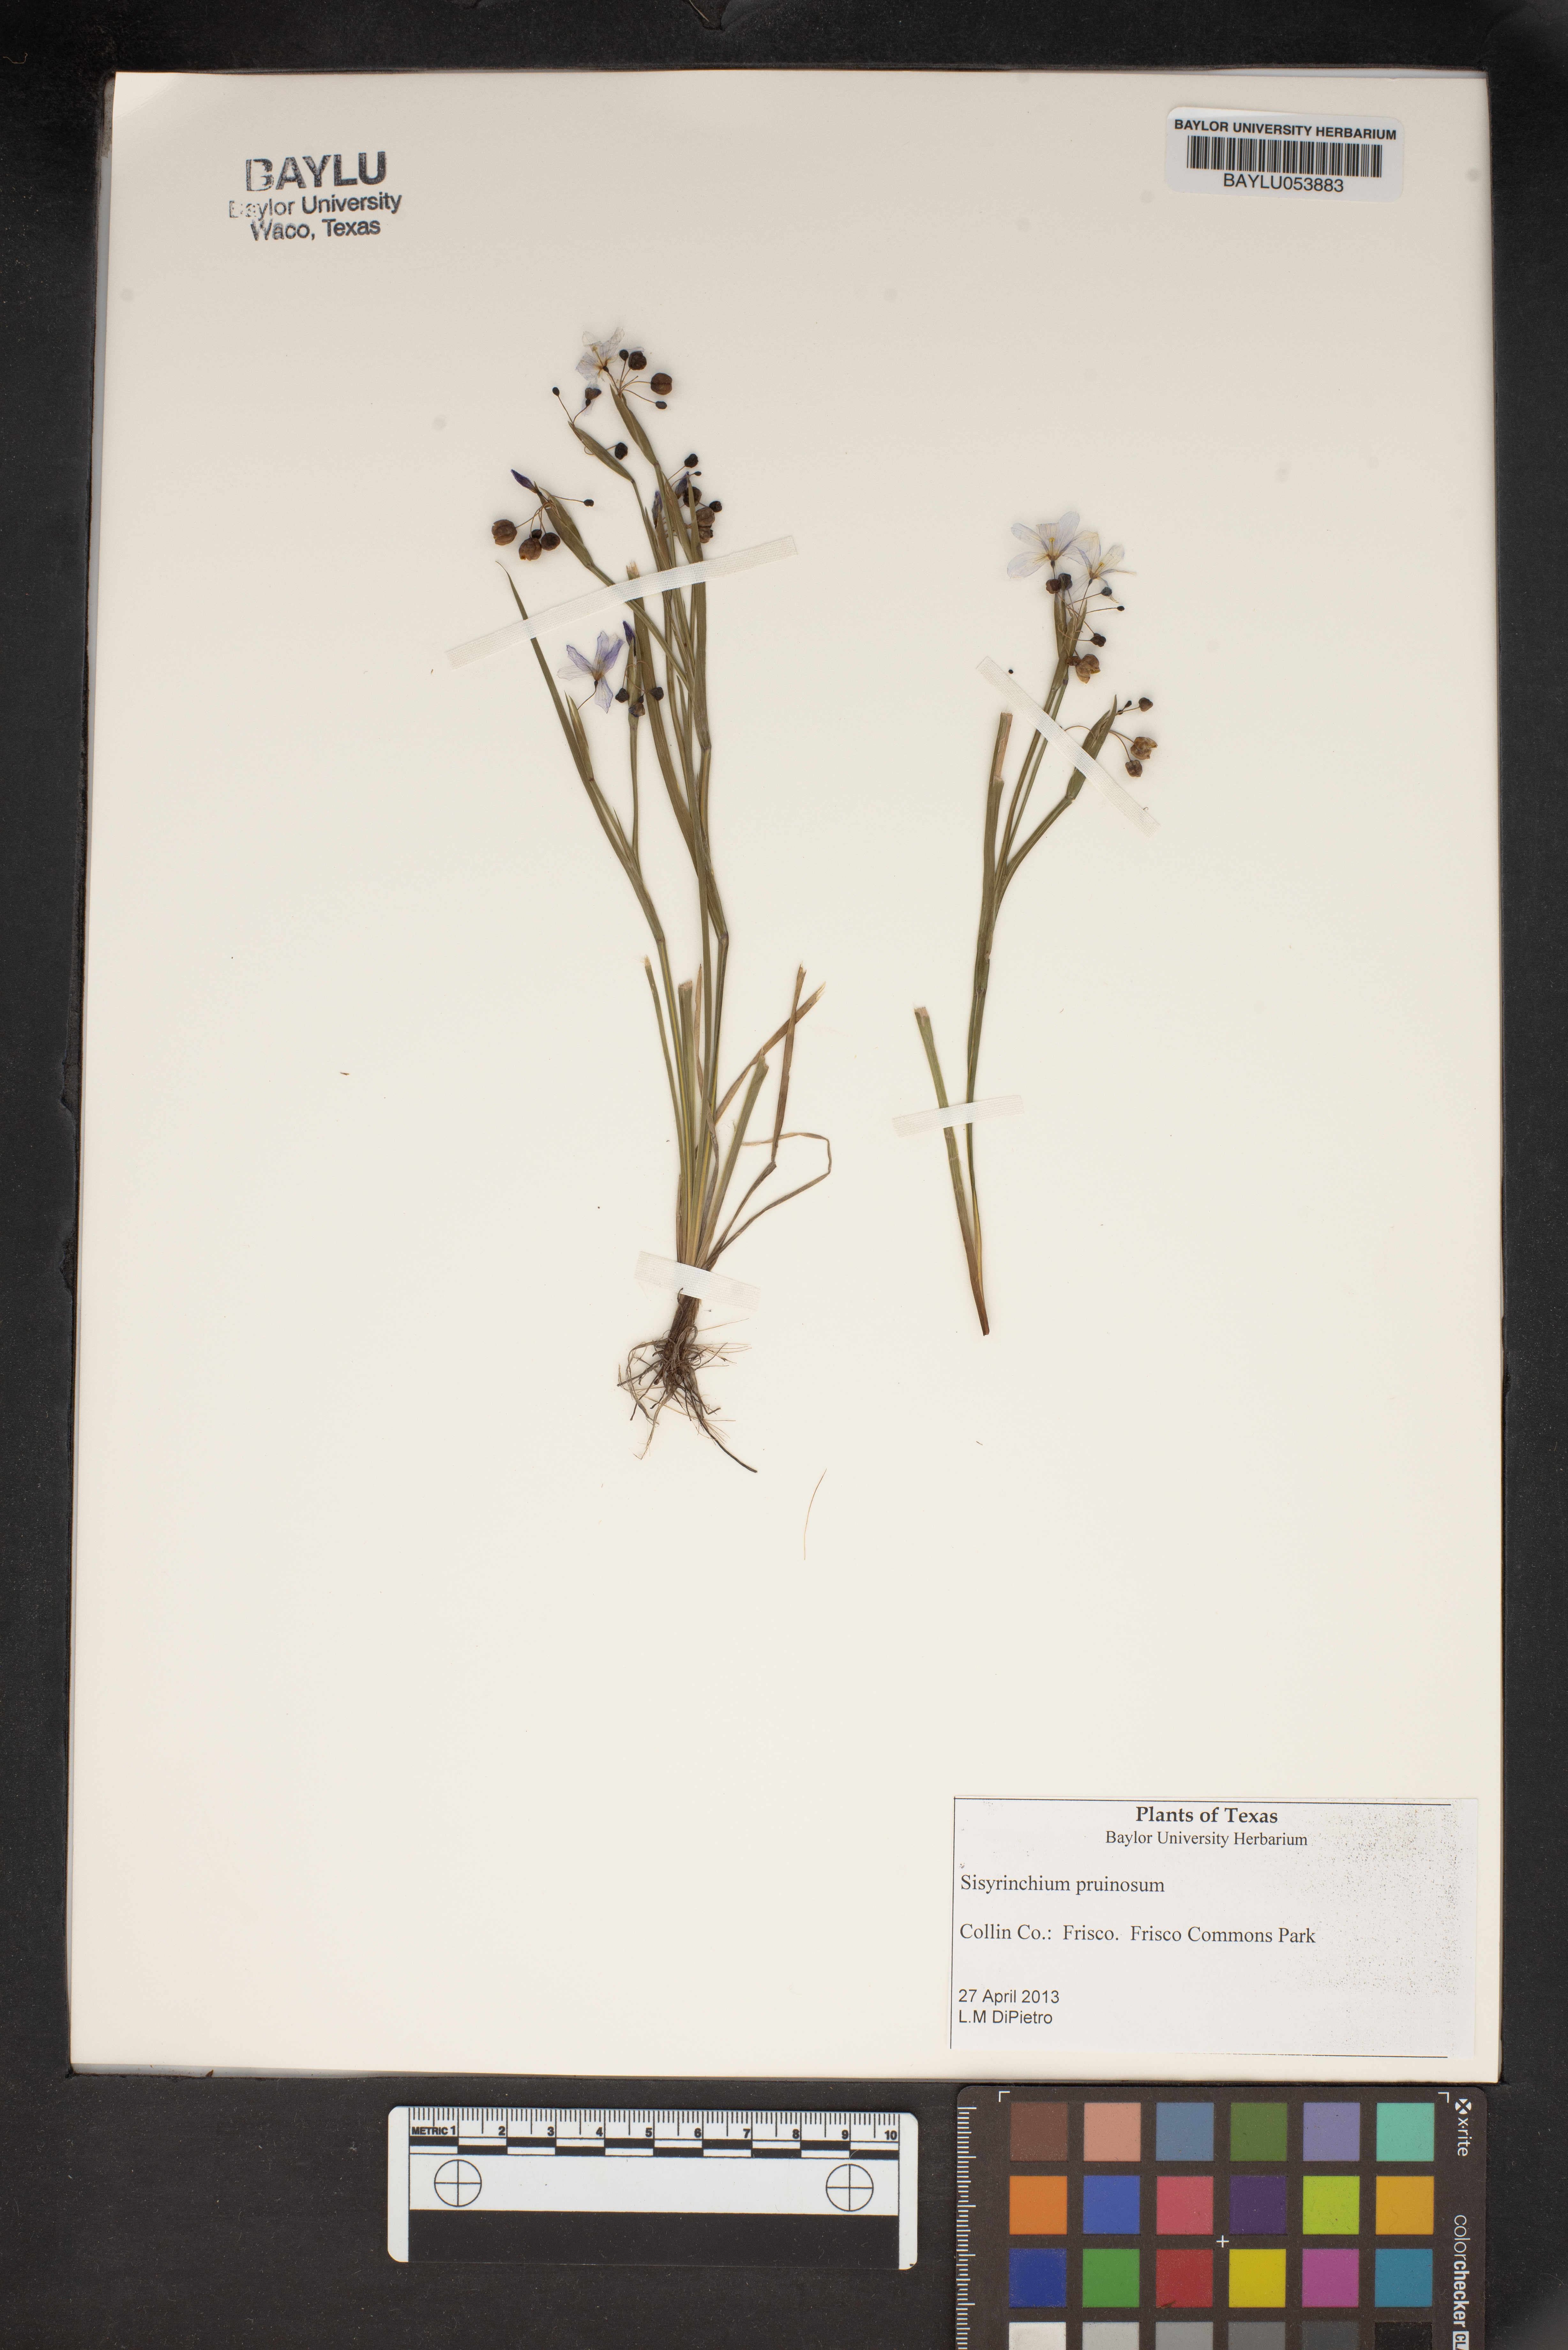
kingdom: Plantae
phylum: Tracheophyta
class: Liliopsida
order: Asparagales
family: Iridaceae
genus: Sisyrinchium
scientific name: Sisyrinchium pruinosum
